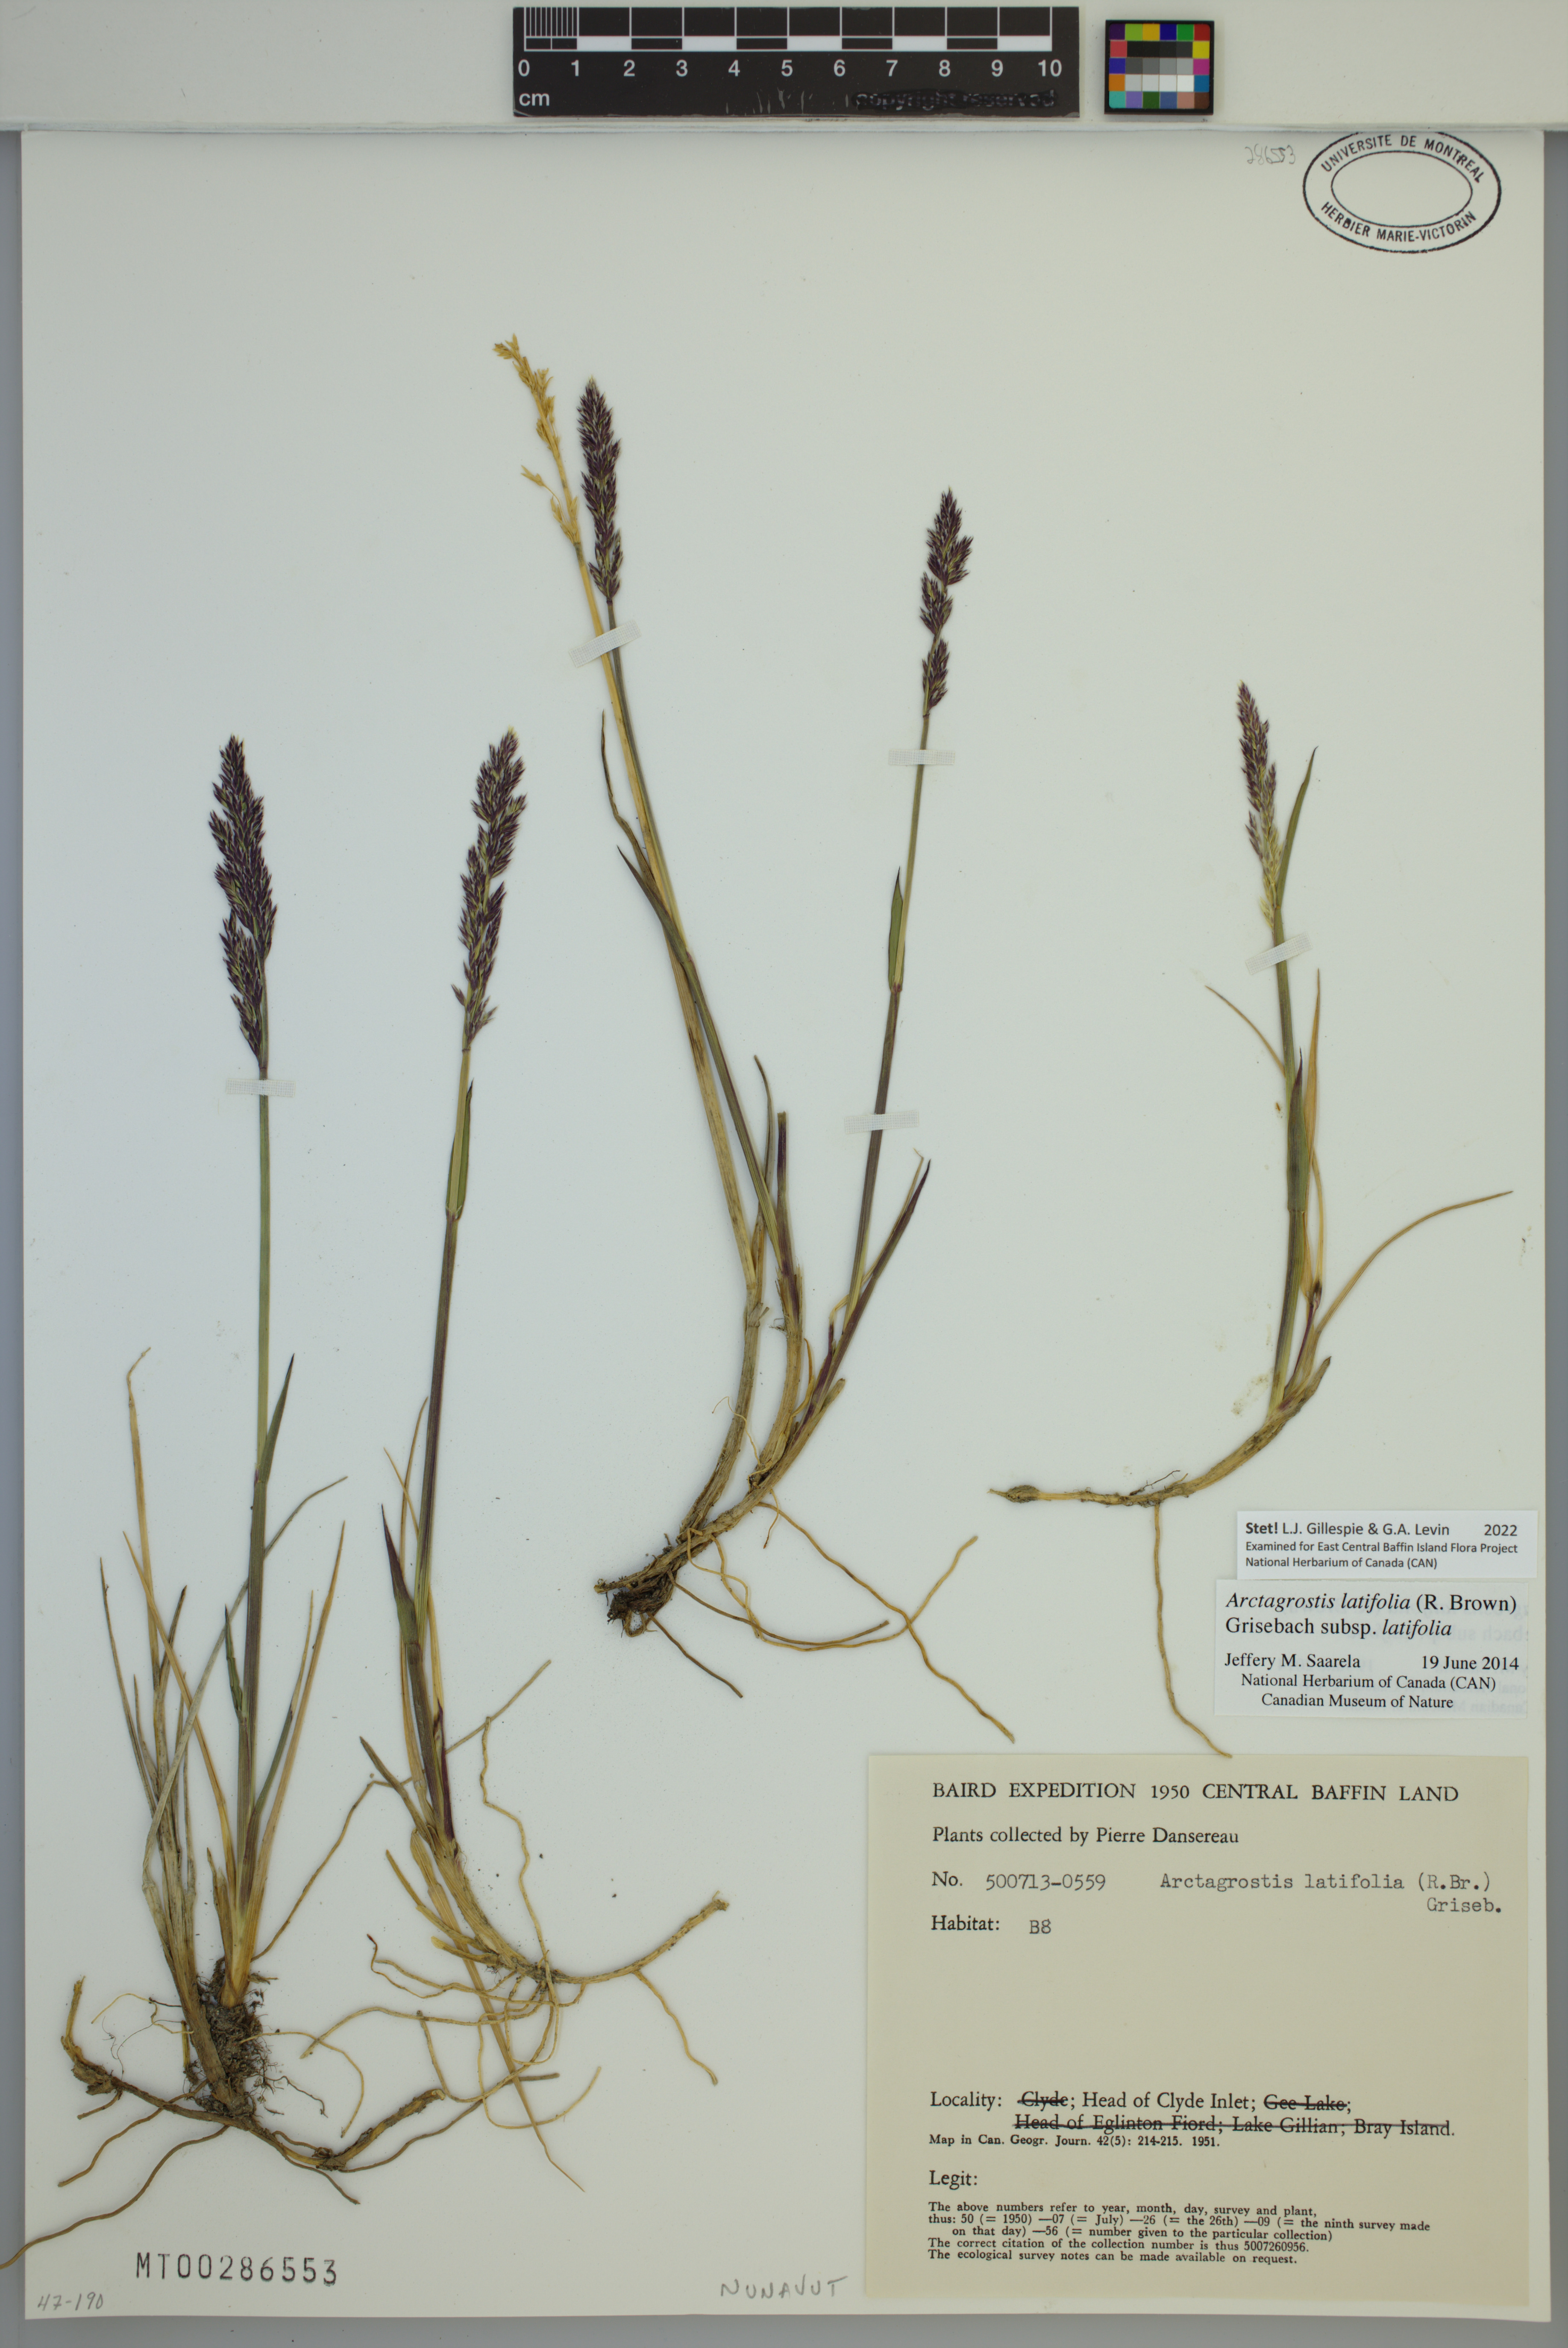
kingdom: Plantae
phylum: Tracheophyta
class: Liliopsida
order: Poales
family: Poaceae
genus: Arctagrostis
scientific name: Arctagrostis latifolia
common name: Arctic grass
